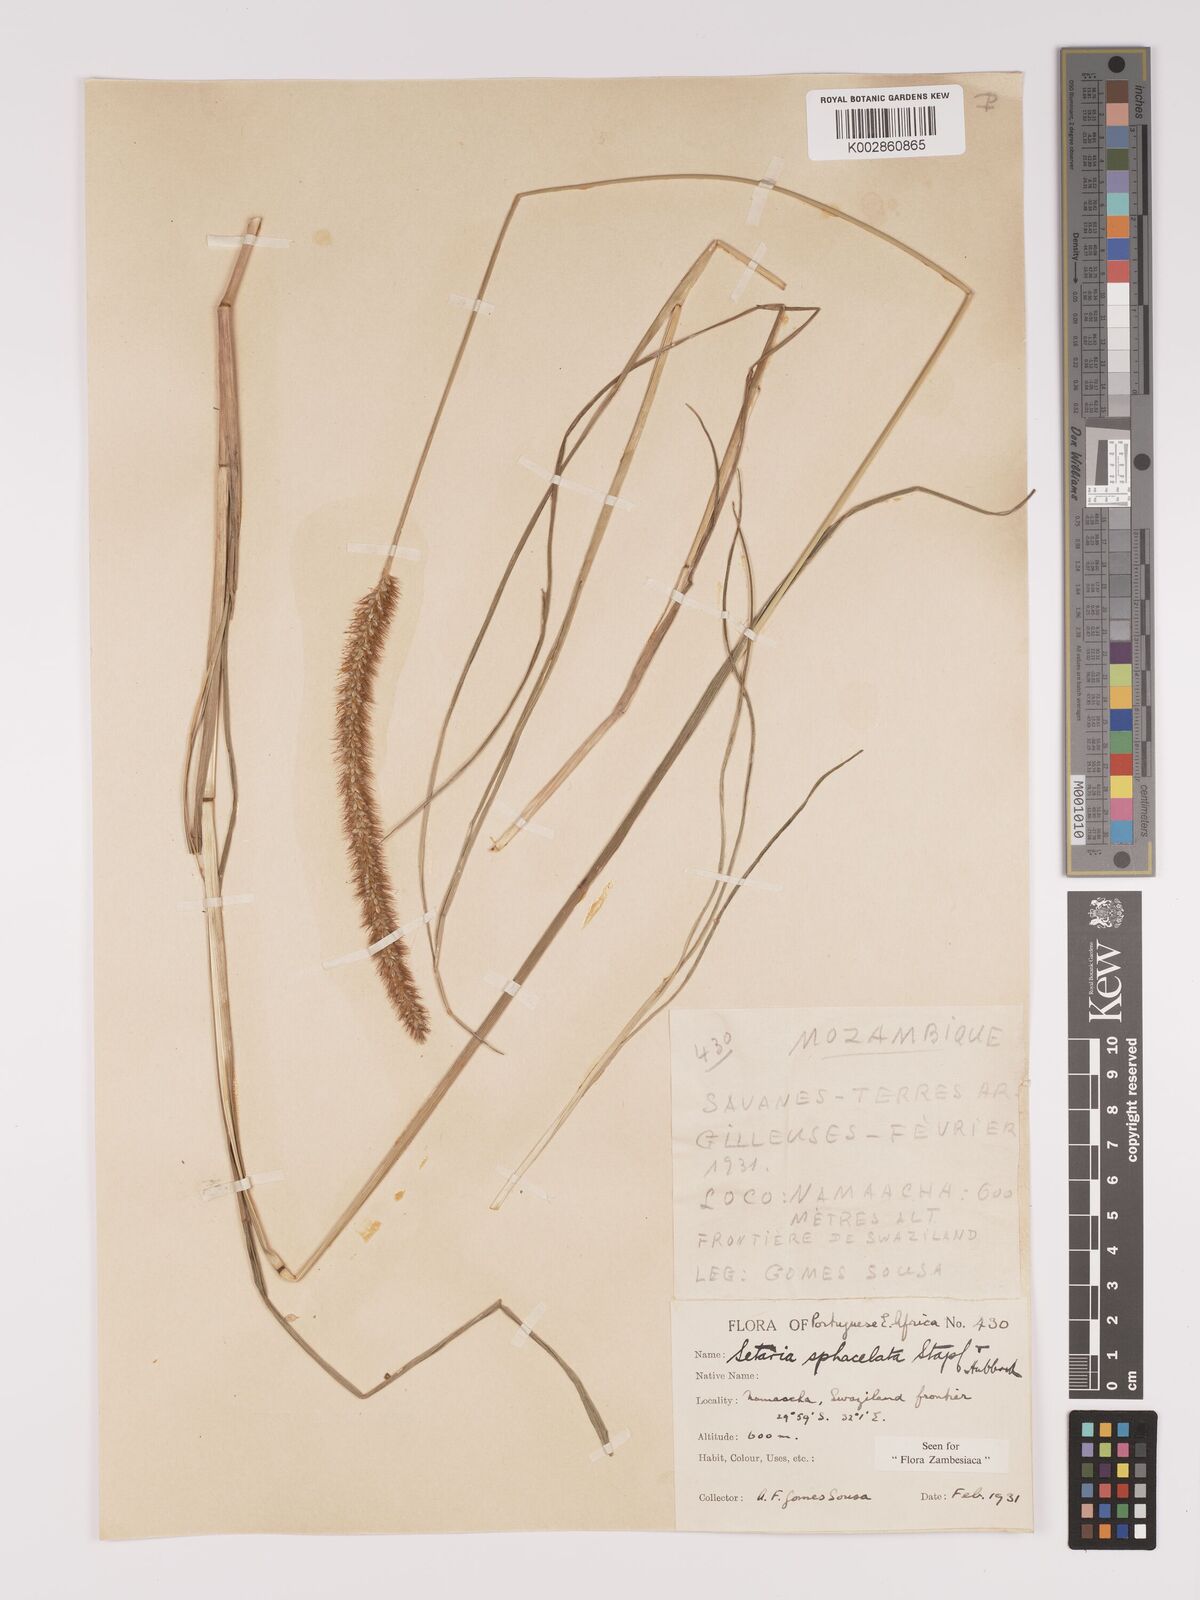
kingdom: Plantae
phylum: Tracheophyta
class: Liliopsida
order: Poales
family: Poaceae
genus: Setaria
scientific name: Setaria sphacelata
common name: African bristlegrass
